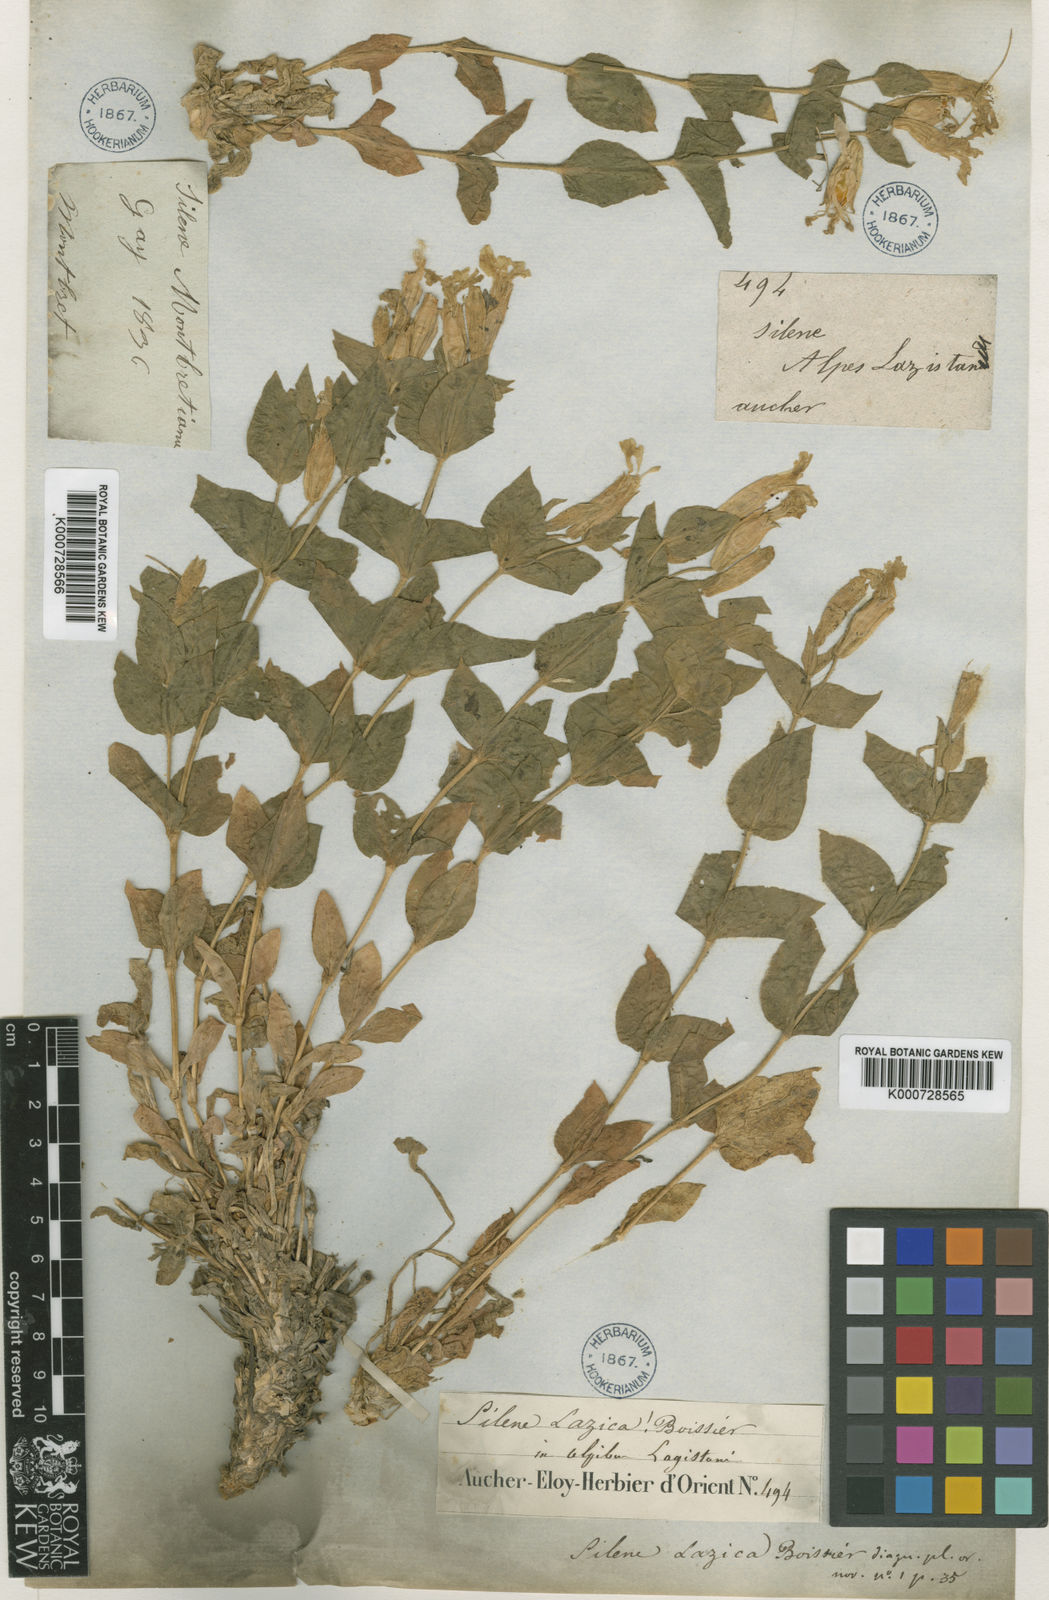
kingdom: Plantae
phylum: Tracheophyta
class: Magnoliopsida
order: Caryophyllales
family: Caryophyllaceae
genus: Silene
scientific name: Silene lazica
